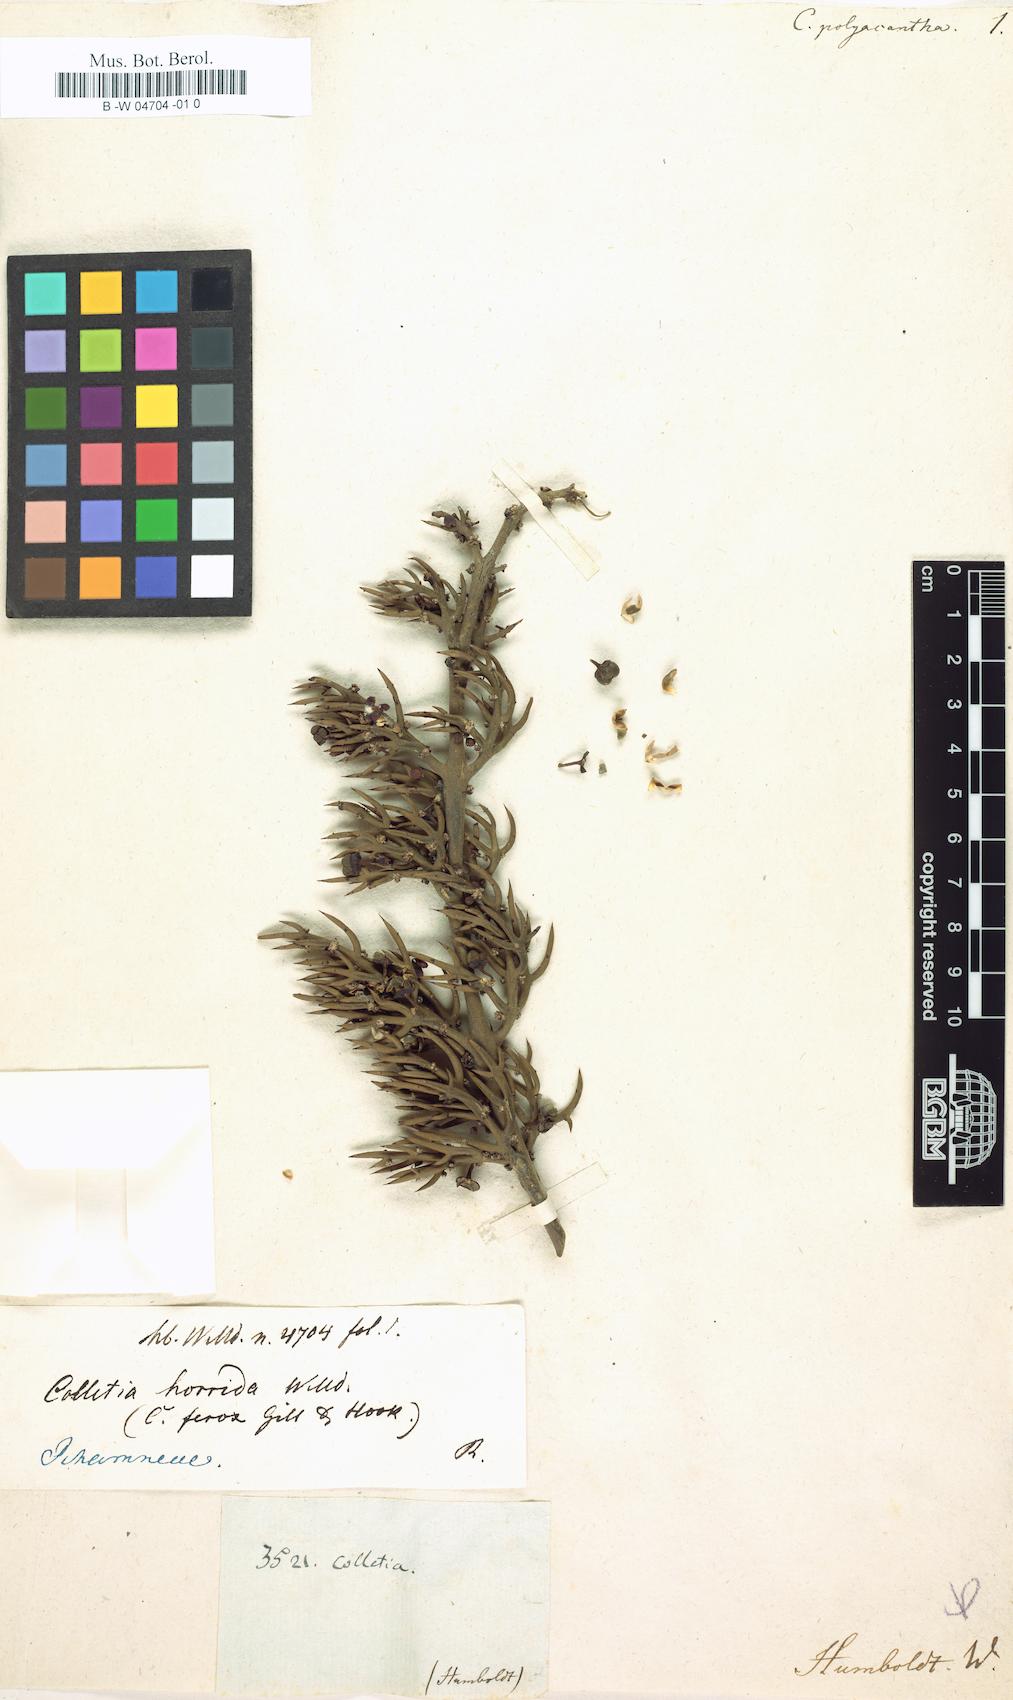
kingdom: Plantae
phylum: Tracheophyta
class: Magnoliopsida
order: Rosales
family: Rhamnaceae
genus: Colletia
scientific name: Colletia spinosissima
